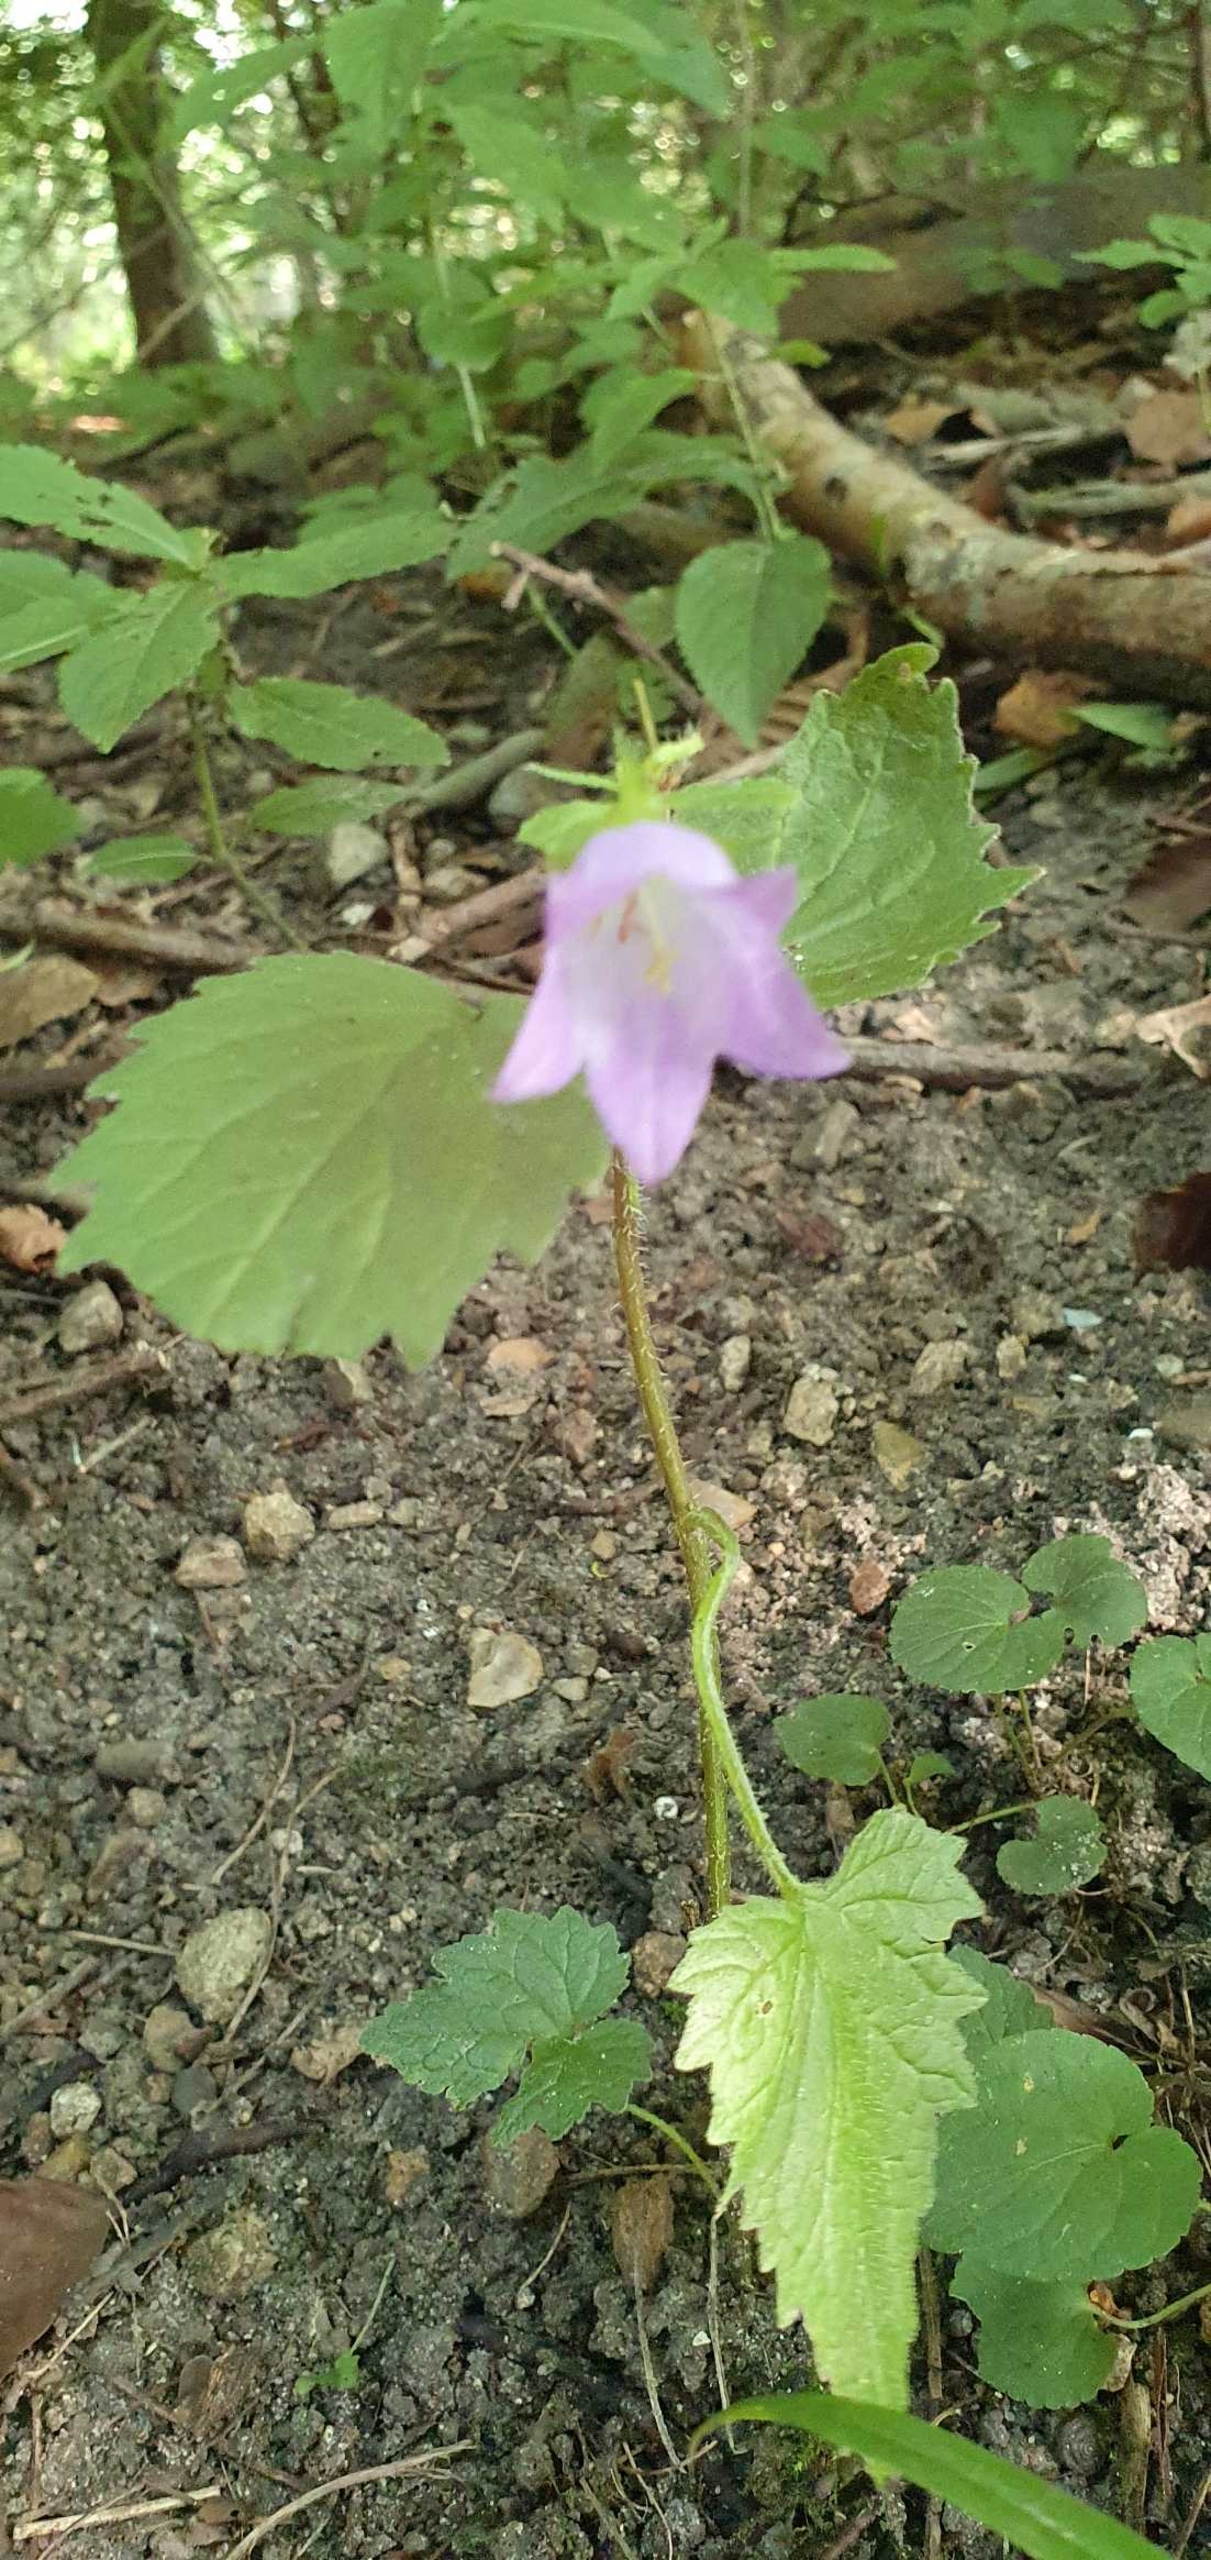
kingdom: Plantae
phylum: Tracheophyta
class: Magnoliopsida
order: Asterales
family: Campanulaceae
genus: Campanula
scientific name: Campanula trachelium
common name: Nælde-klokke
